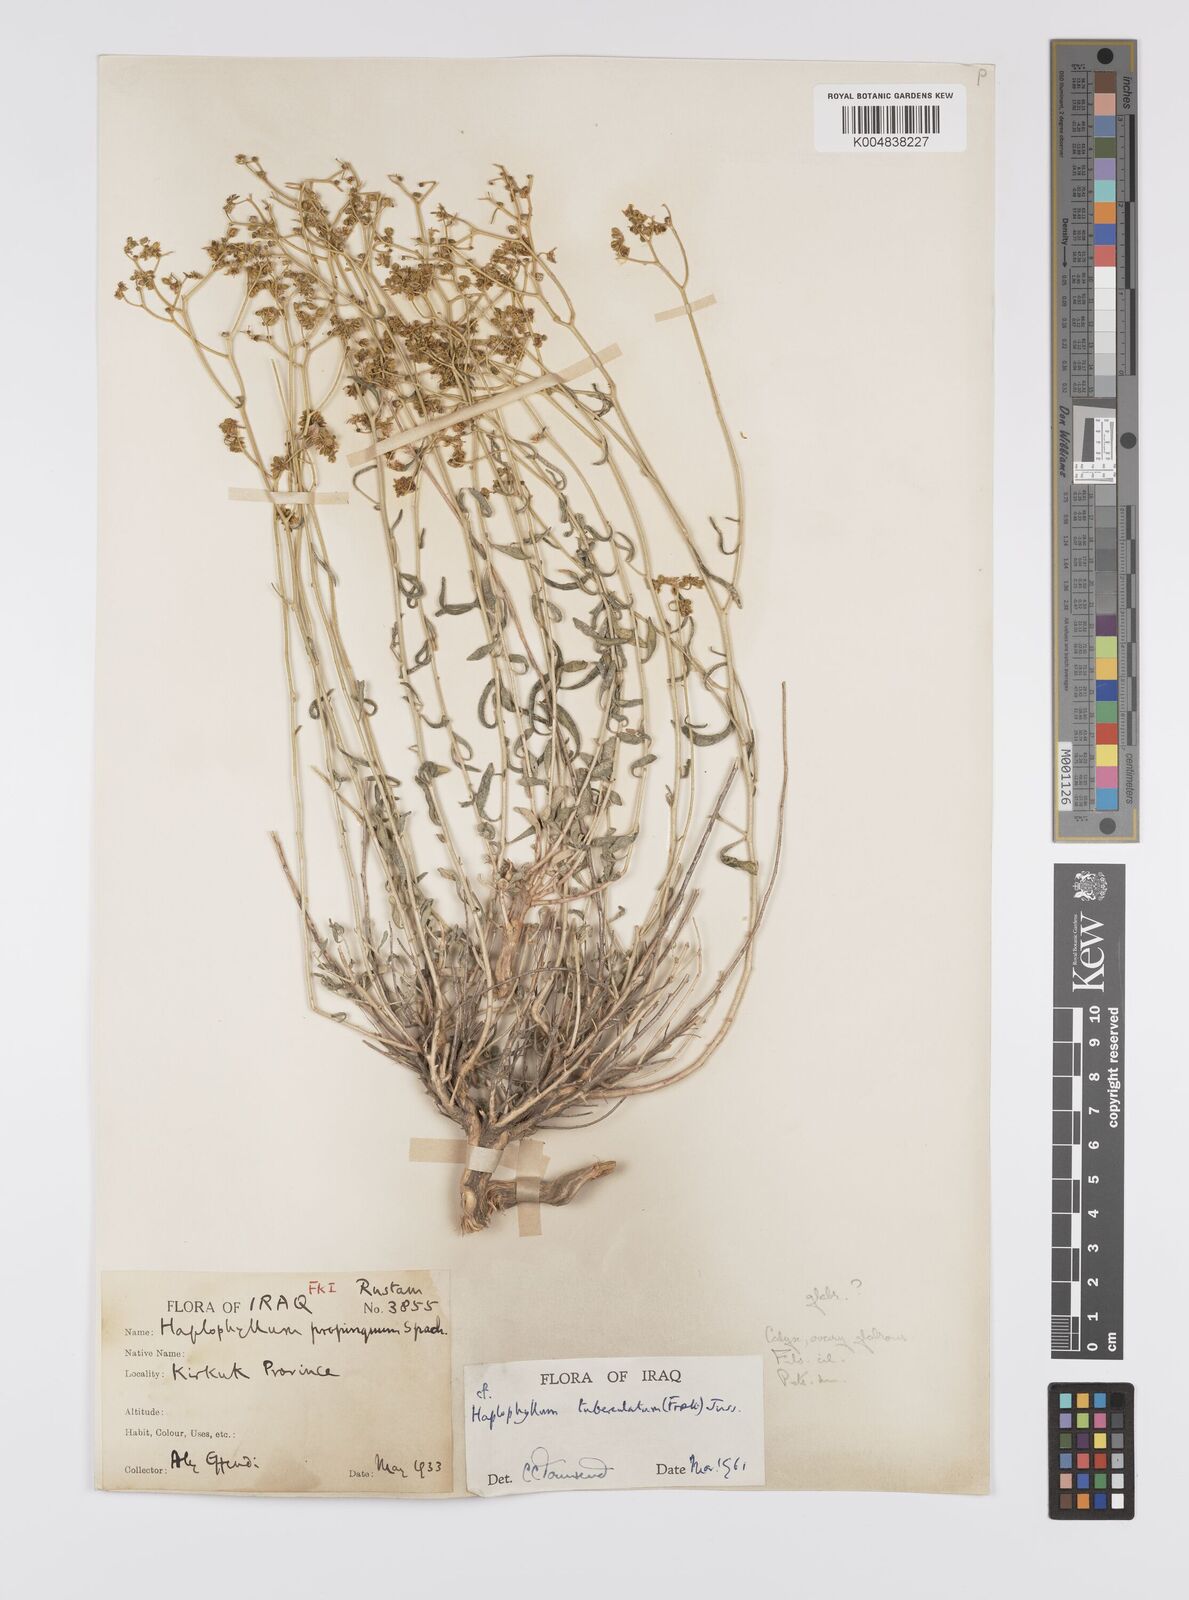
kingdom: Plantae
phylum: Tracheophyta
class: Magnoliopsida
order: Sapindales
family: Rutaceae
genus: Haplophyllum
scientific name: Haplophyllum tuberculatum
